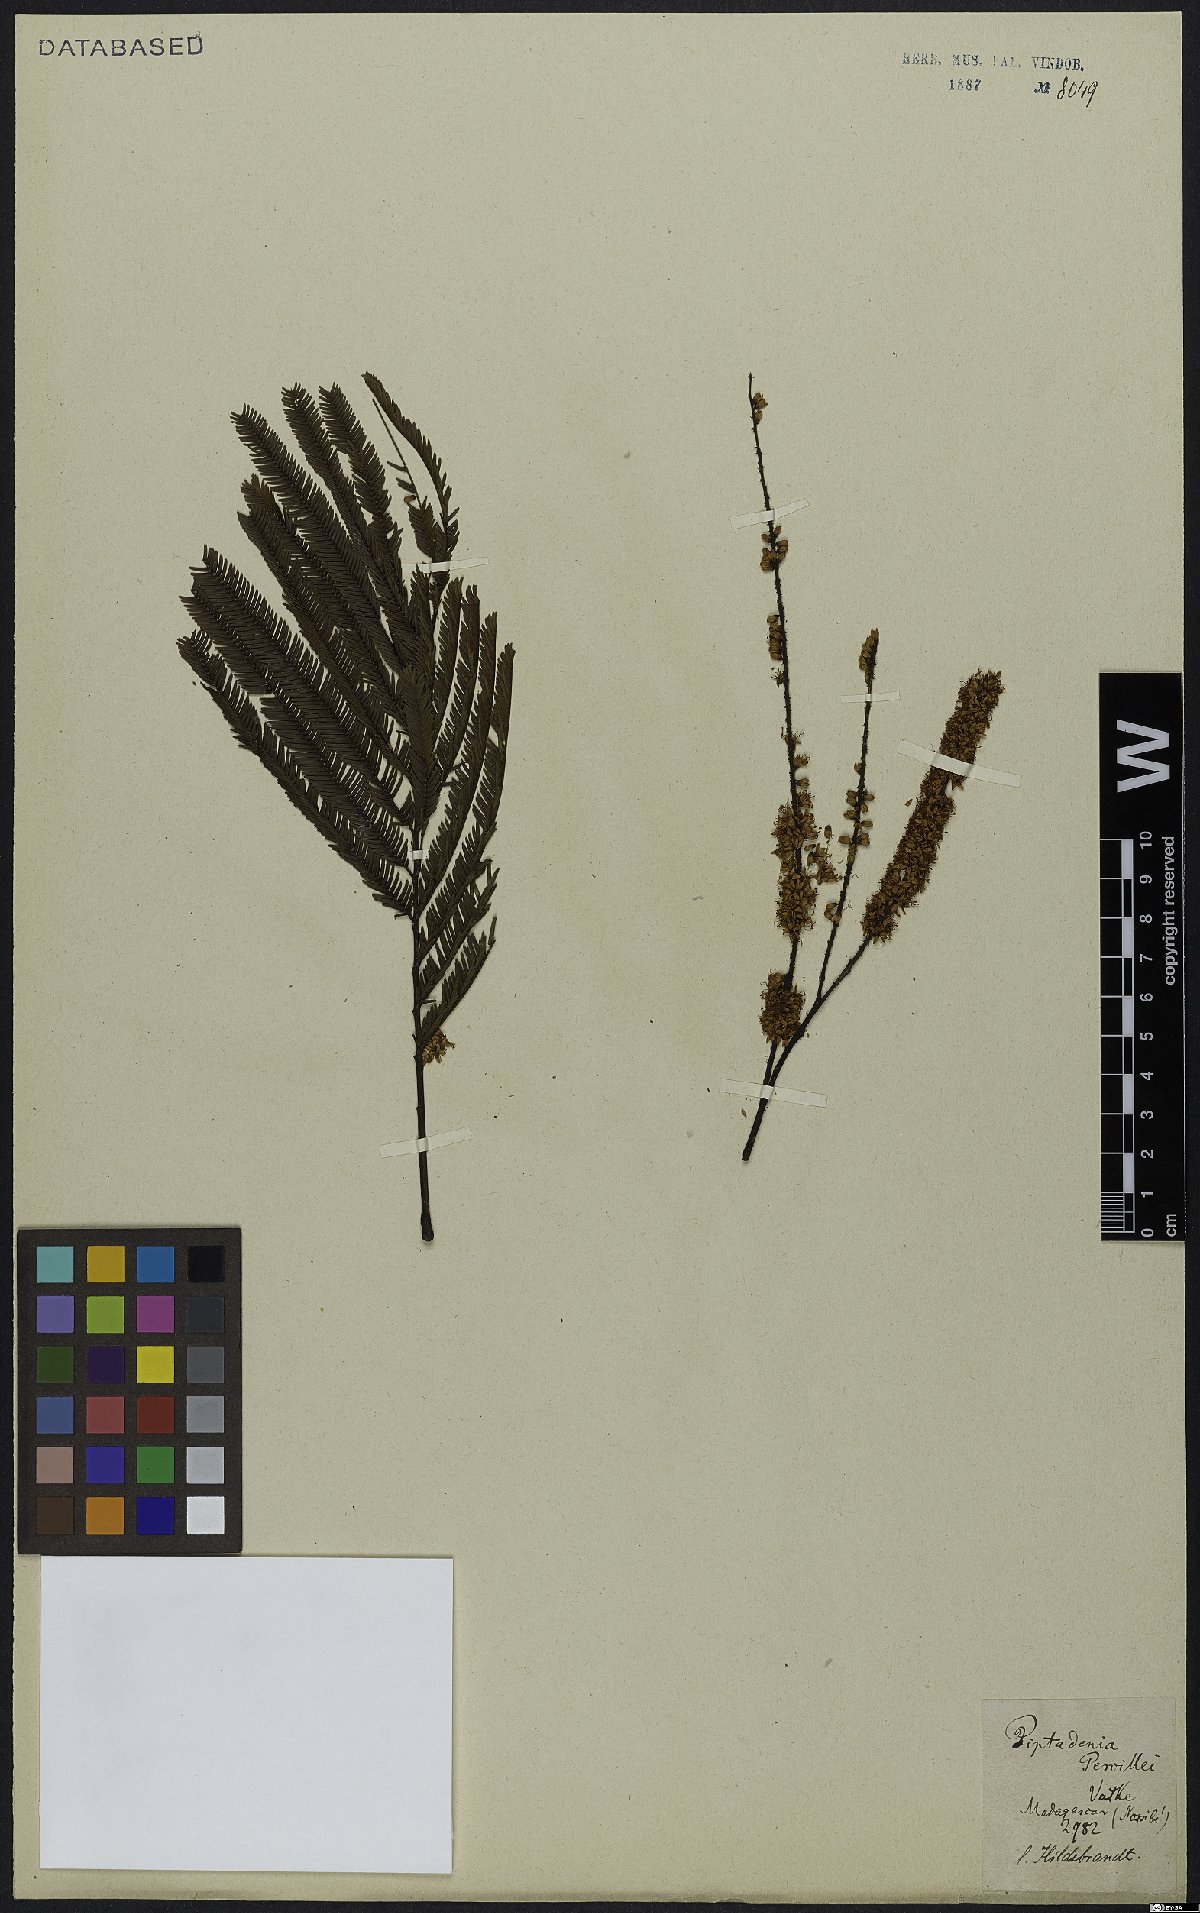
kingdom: Plantae
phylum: Tracheophyta
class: Magnoliopsida
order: Fabales
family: Fabaceae
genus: Entada
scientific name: Entada pervillei
